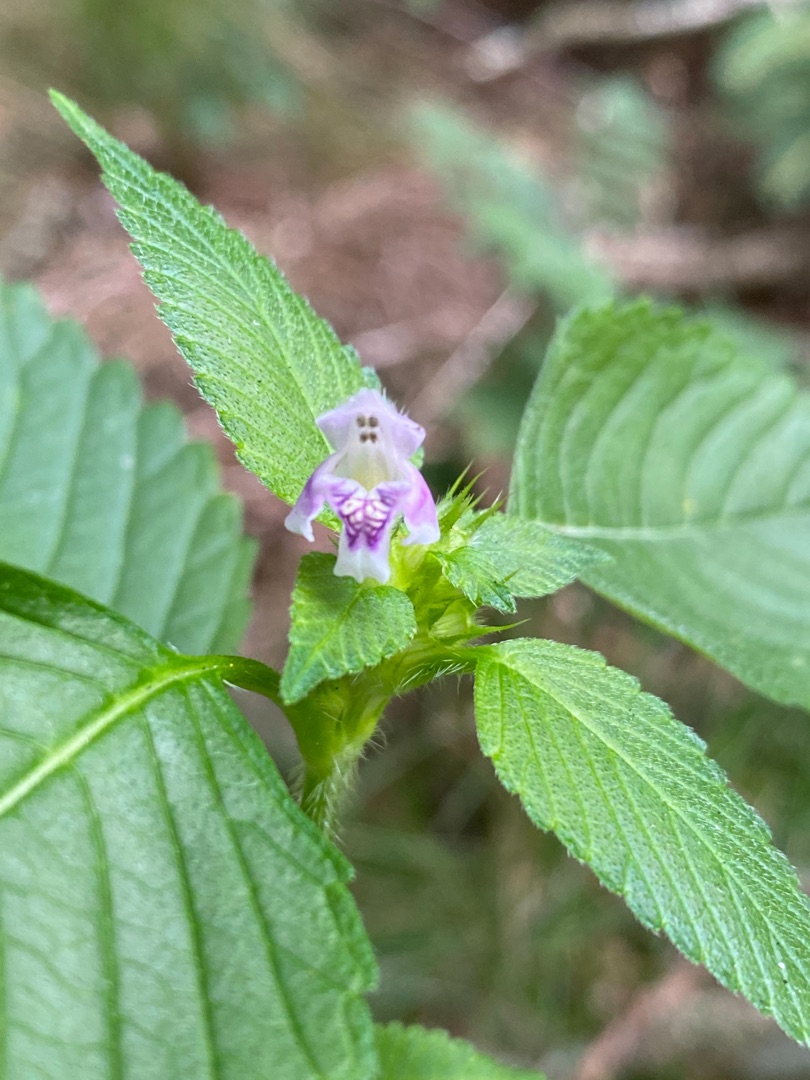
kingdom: Plantae
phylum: Tracheophyta
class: Magnoliopsida
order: Lamiales
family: Lamiaceae
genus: Galeopsis
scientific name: Galeopsis tetrahit
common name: Almindelig hanekro
